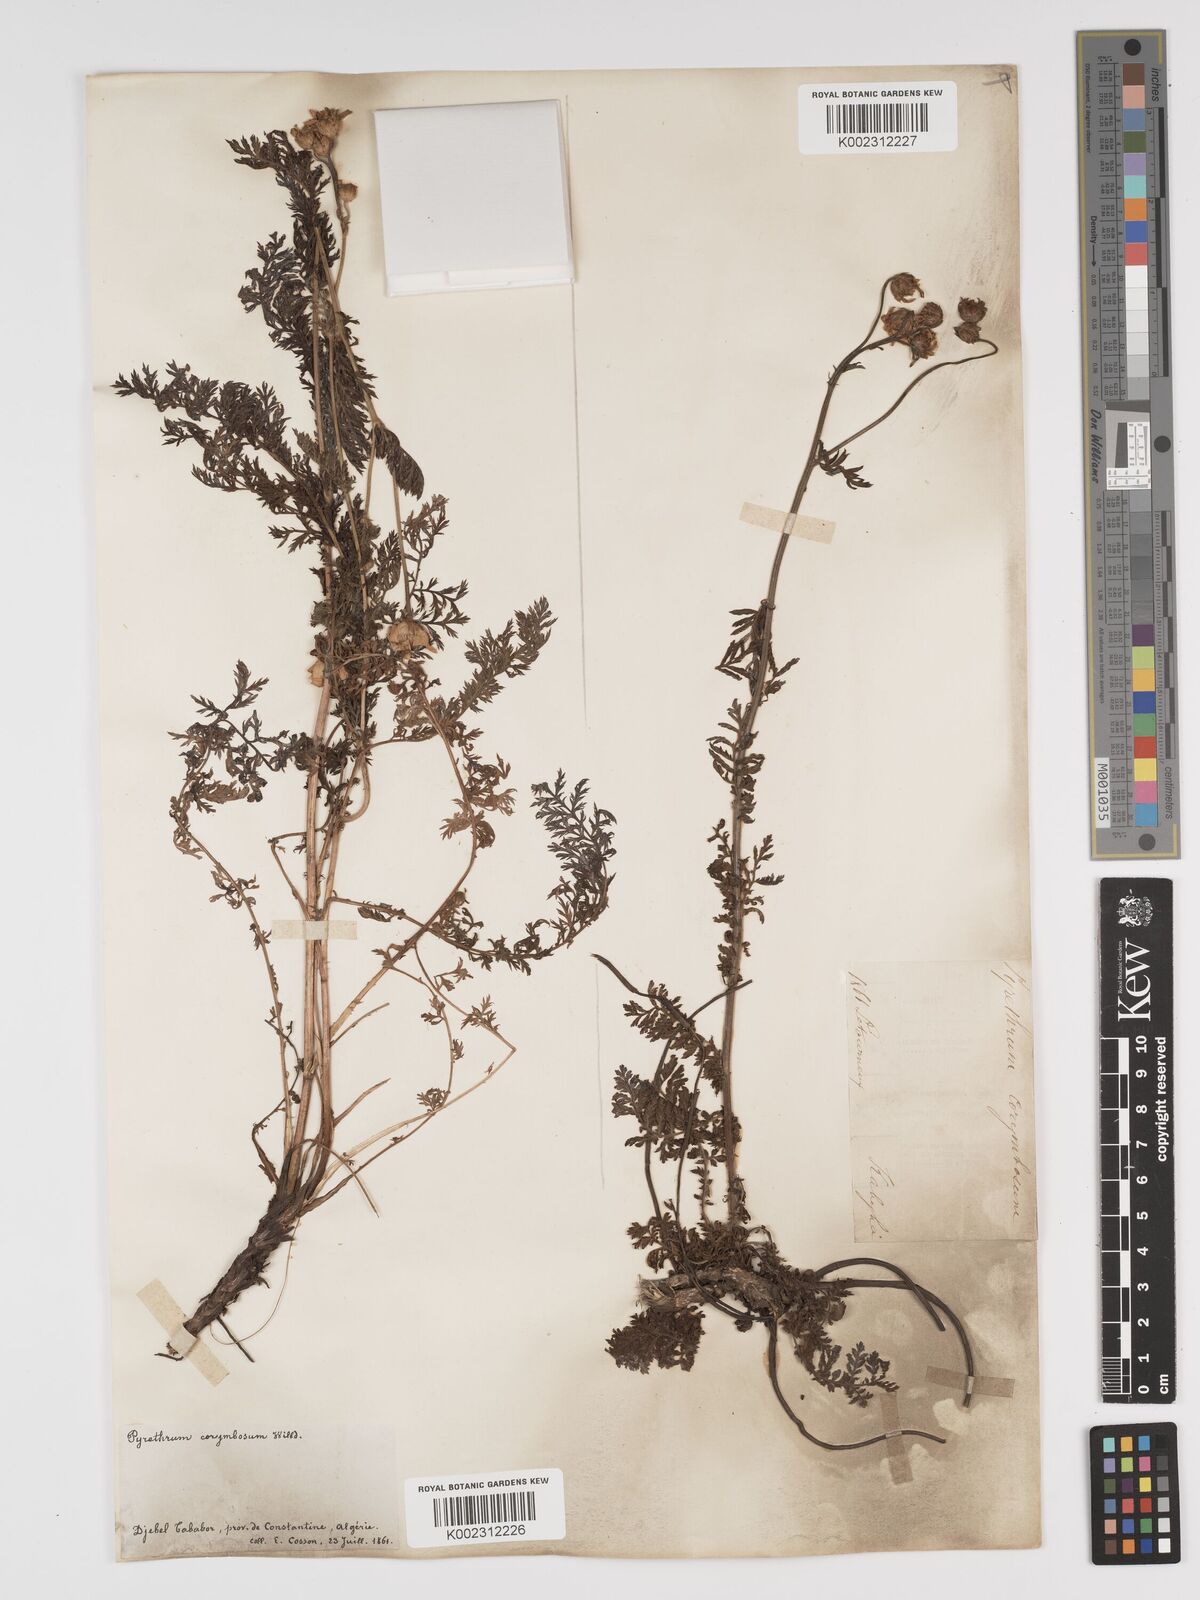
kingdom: Plantae
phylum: Tracheophyta
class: Magnoliopsida
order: Asterales
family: Asteraceae
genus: Tanacetum
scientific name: Tanacetum corymbosum
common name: Scentless feverfew
